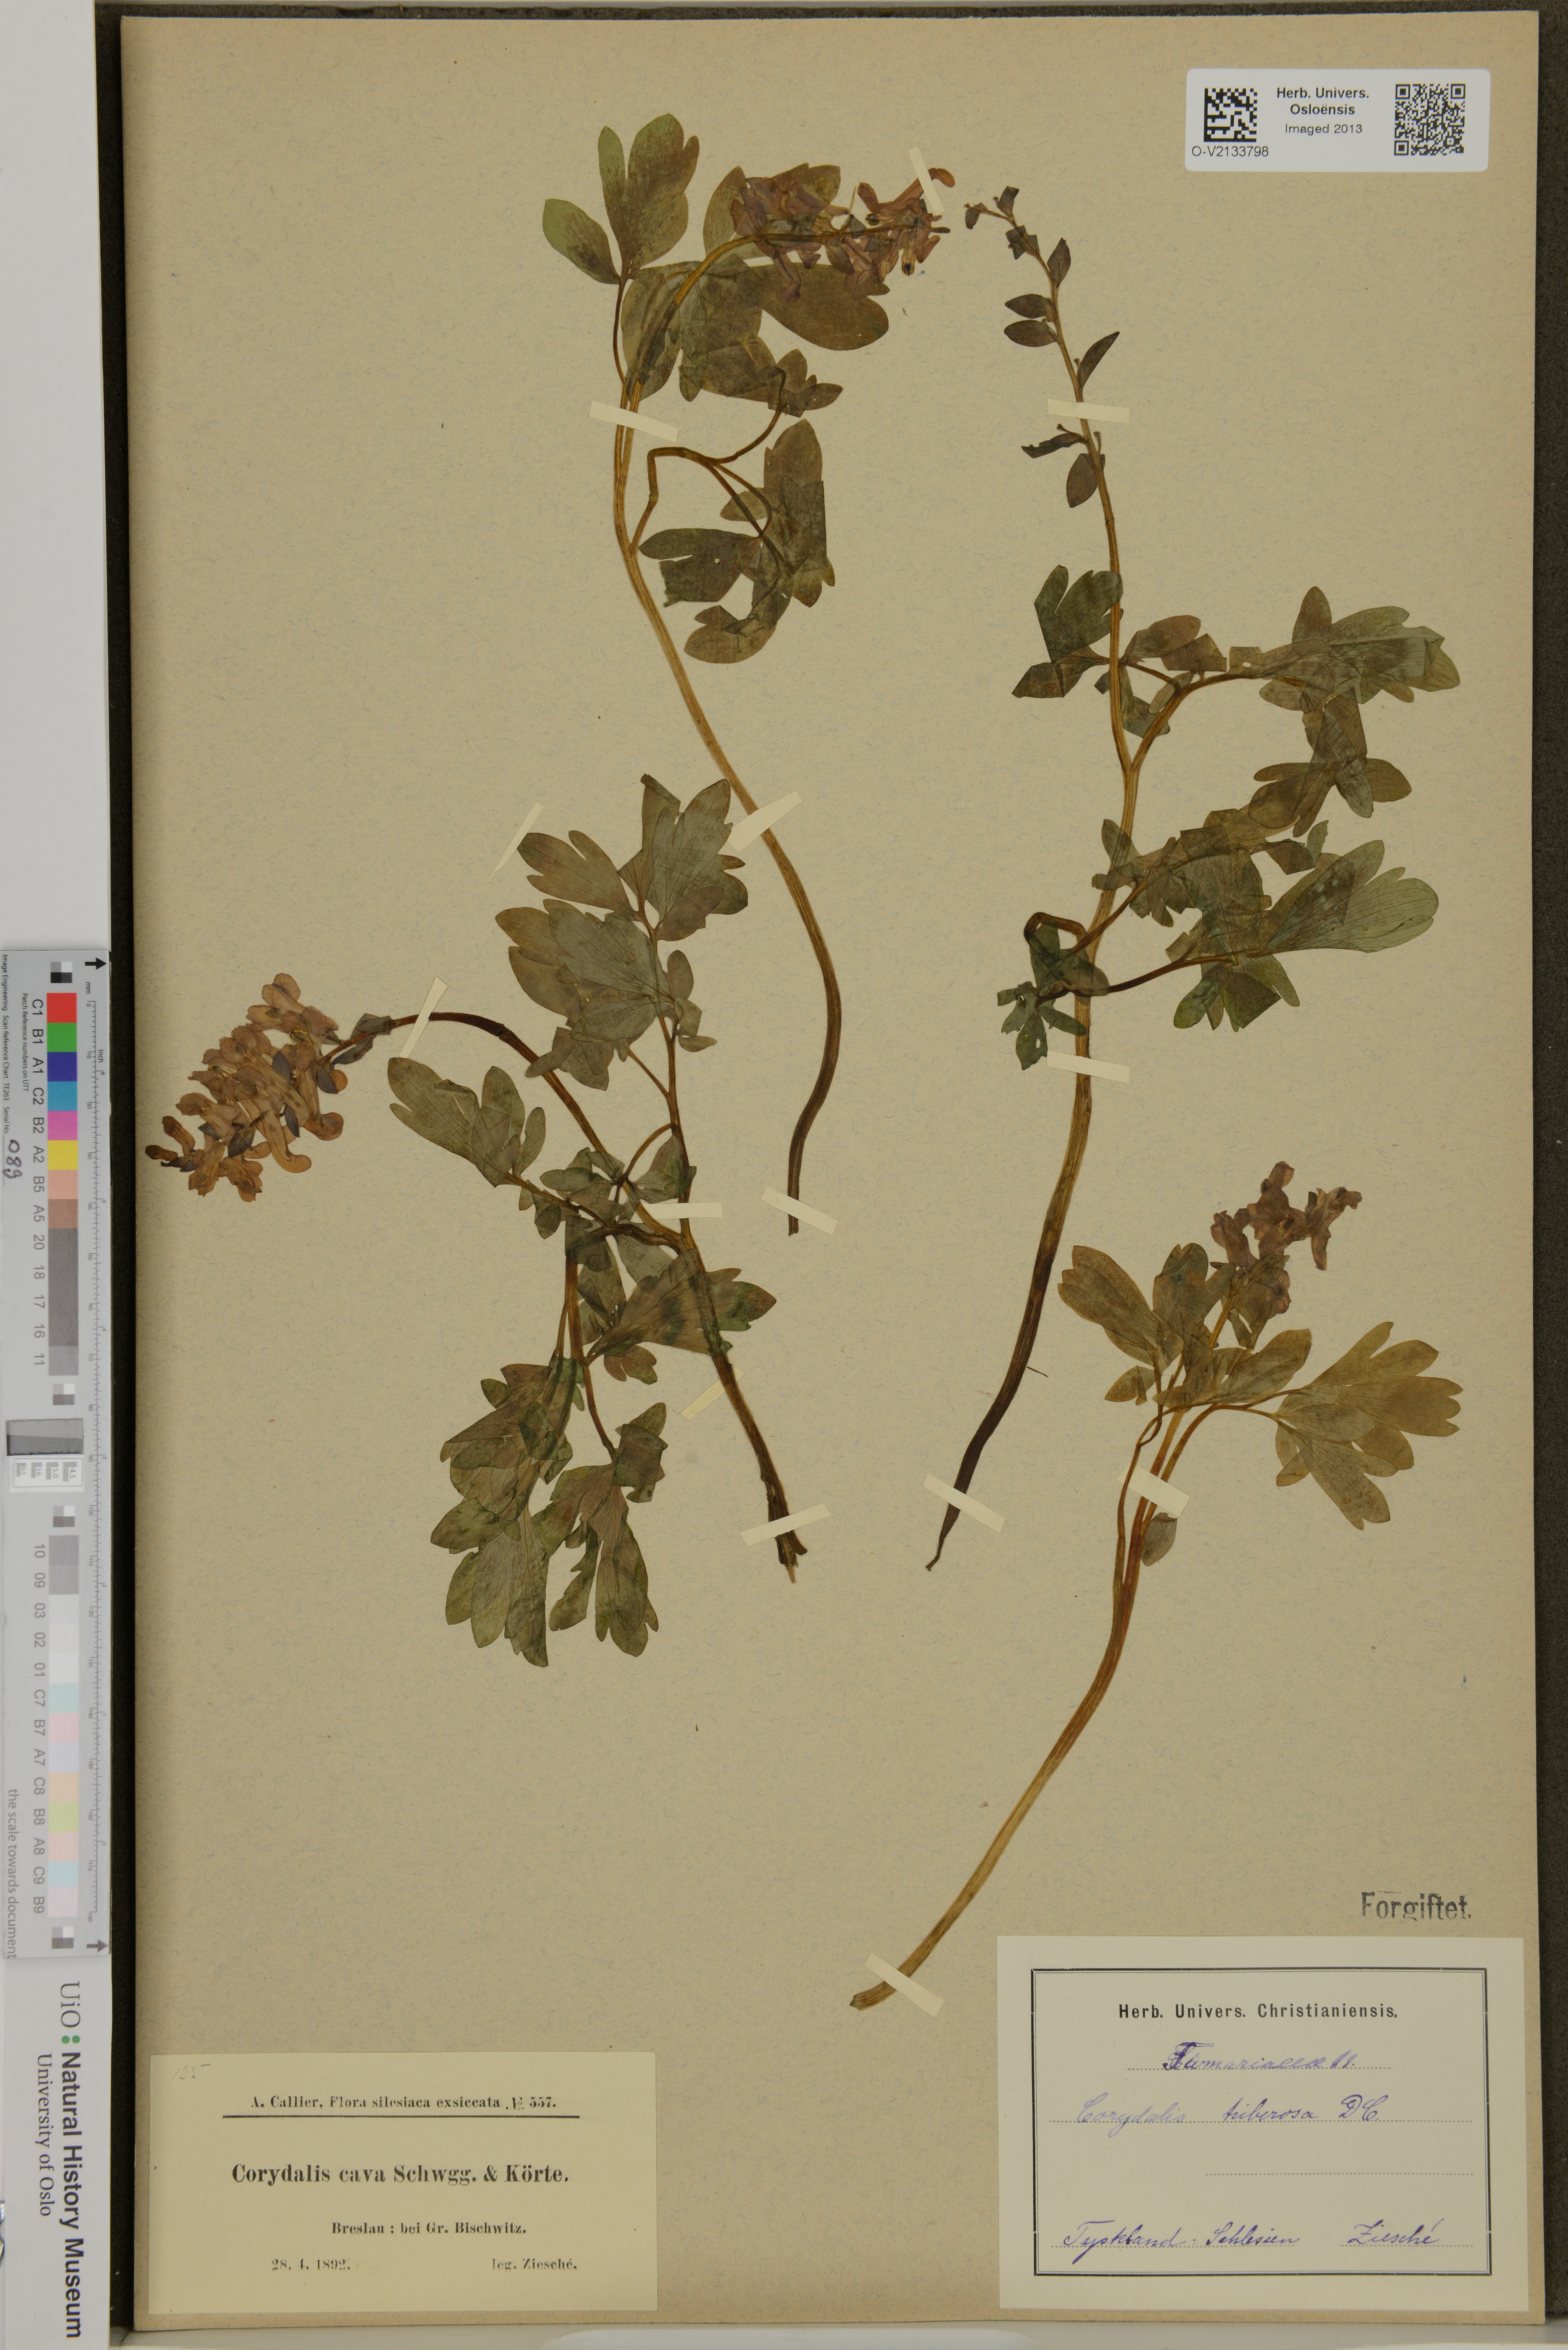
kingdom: Plantae
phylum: Tracheophyta
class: Magnoliopsida
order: Ranunculales
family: Papaveraceae
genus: Corydalis
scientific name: Corydalis cava
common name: Hollowroot
